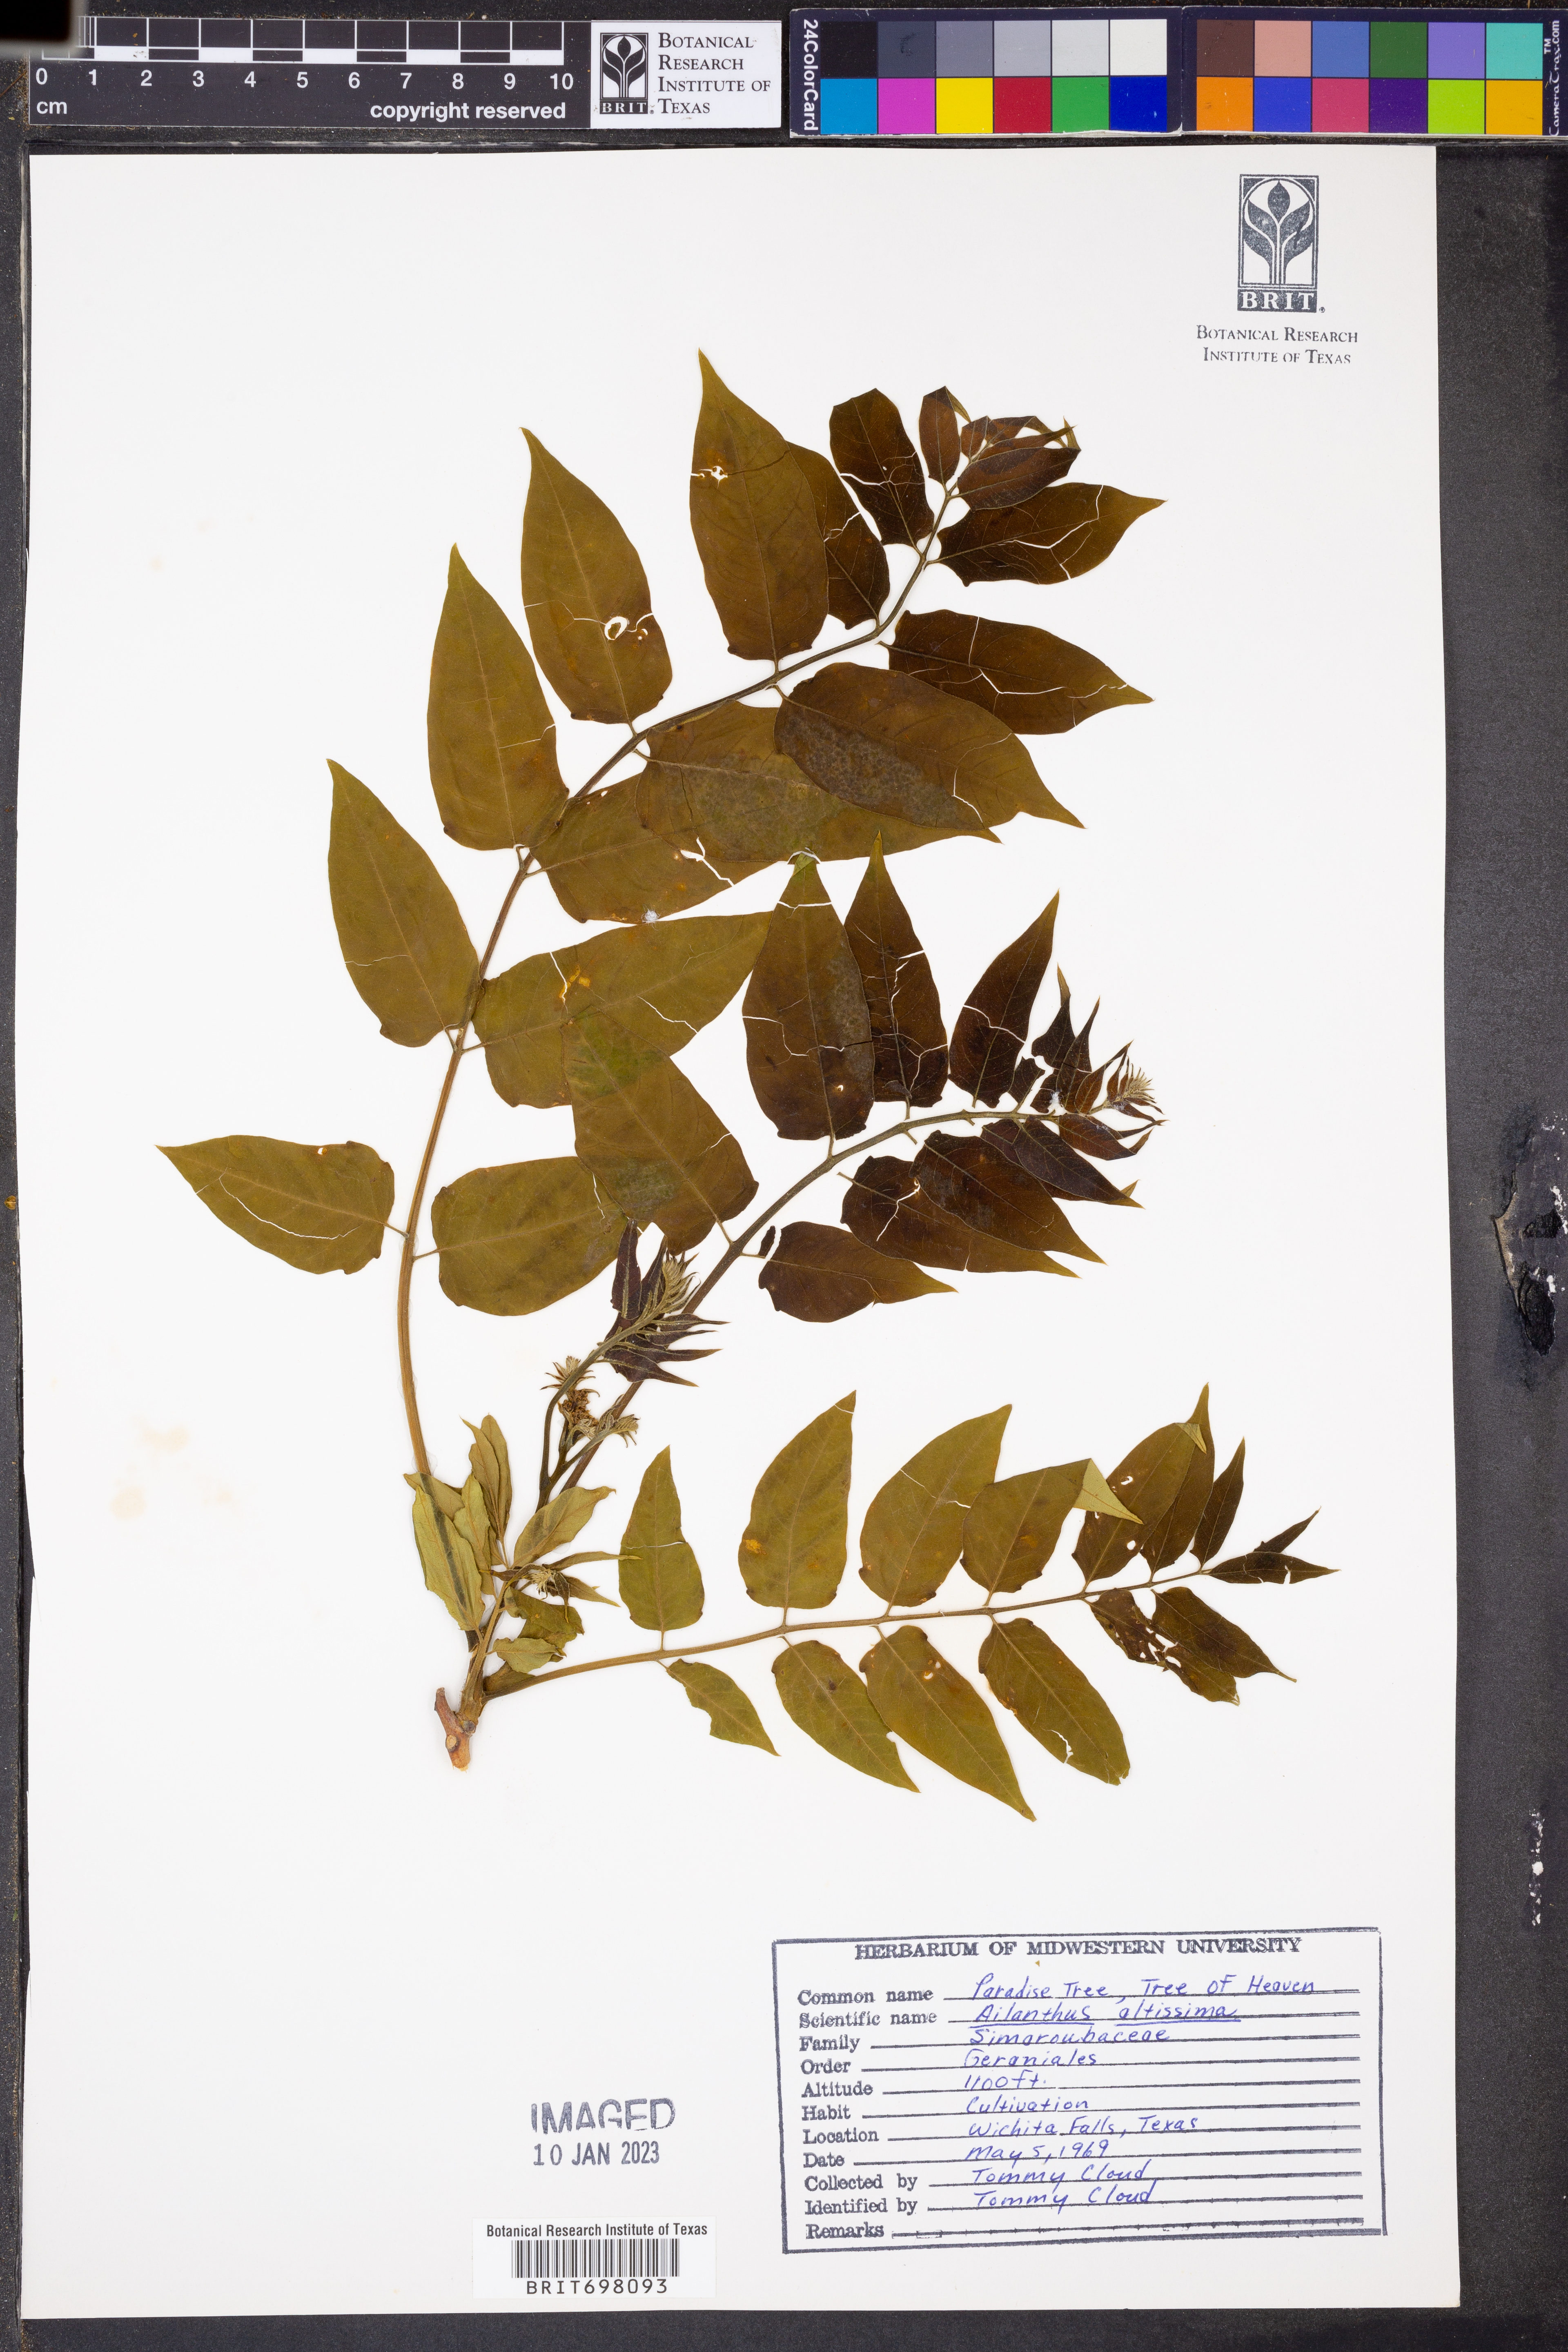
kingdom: Plantae
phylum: Tracheophyta
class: Magnoliopsida
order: Sapindales
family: Simaroubaceae
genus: Ailanthus
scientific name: Ailanthus altissima
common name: Tree-of-heaven
